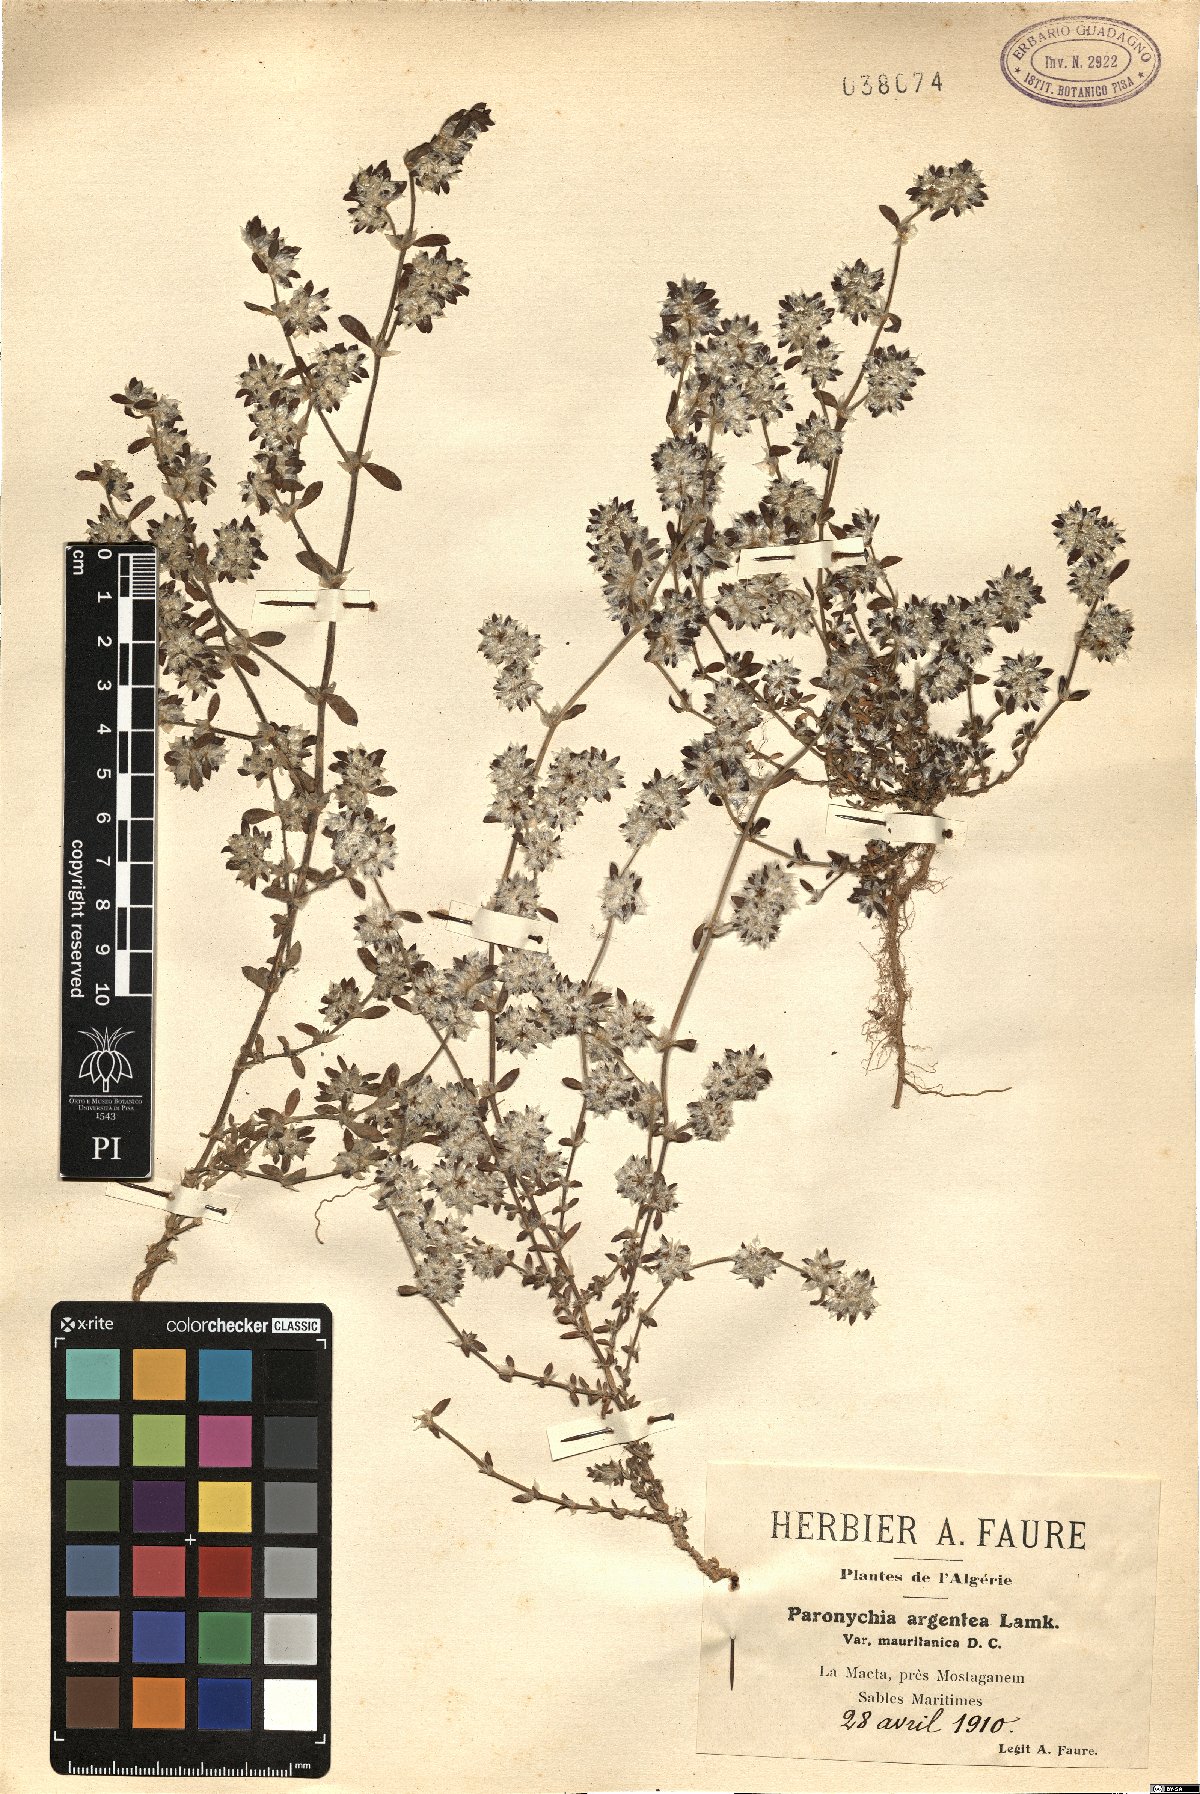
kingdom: Plantae
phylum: Tracheophyta
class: Magnoliopsida
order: Caryophyllales
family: Caryophyllaceae
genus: Paronychia
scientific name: Paronychia argentea
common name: Silver nailroot
